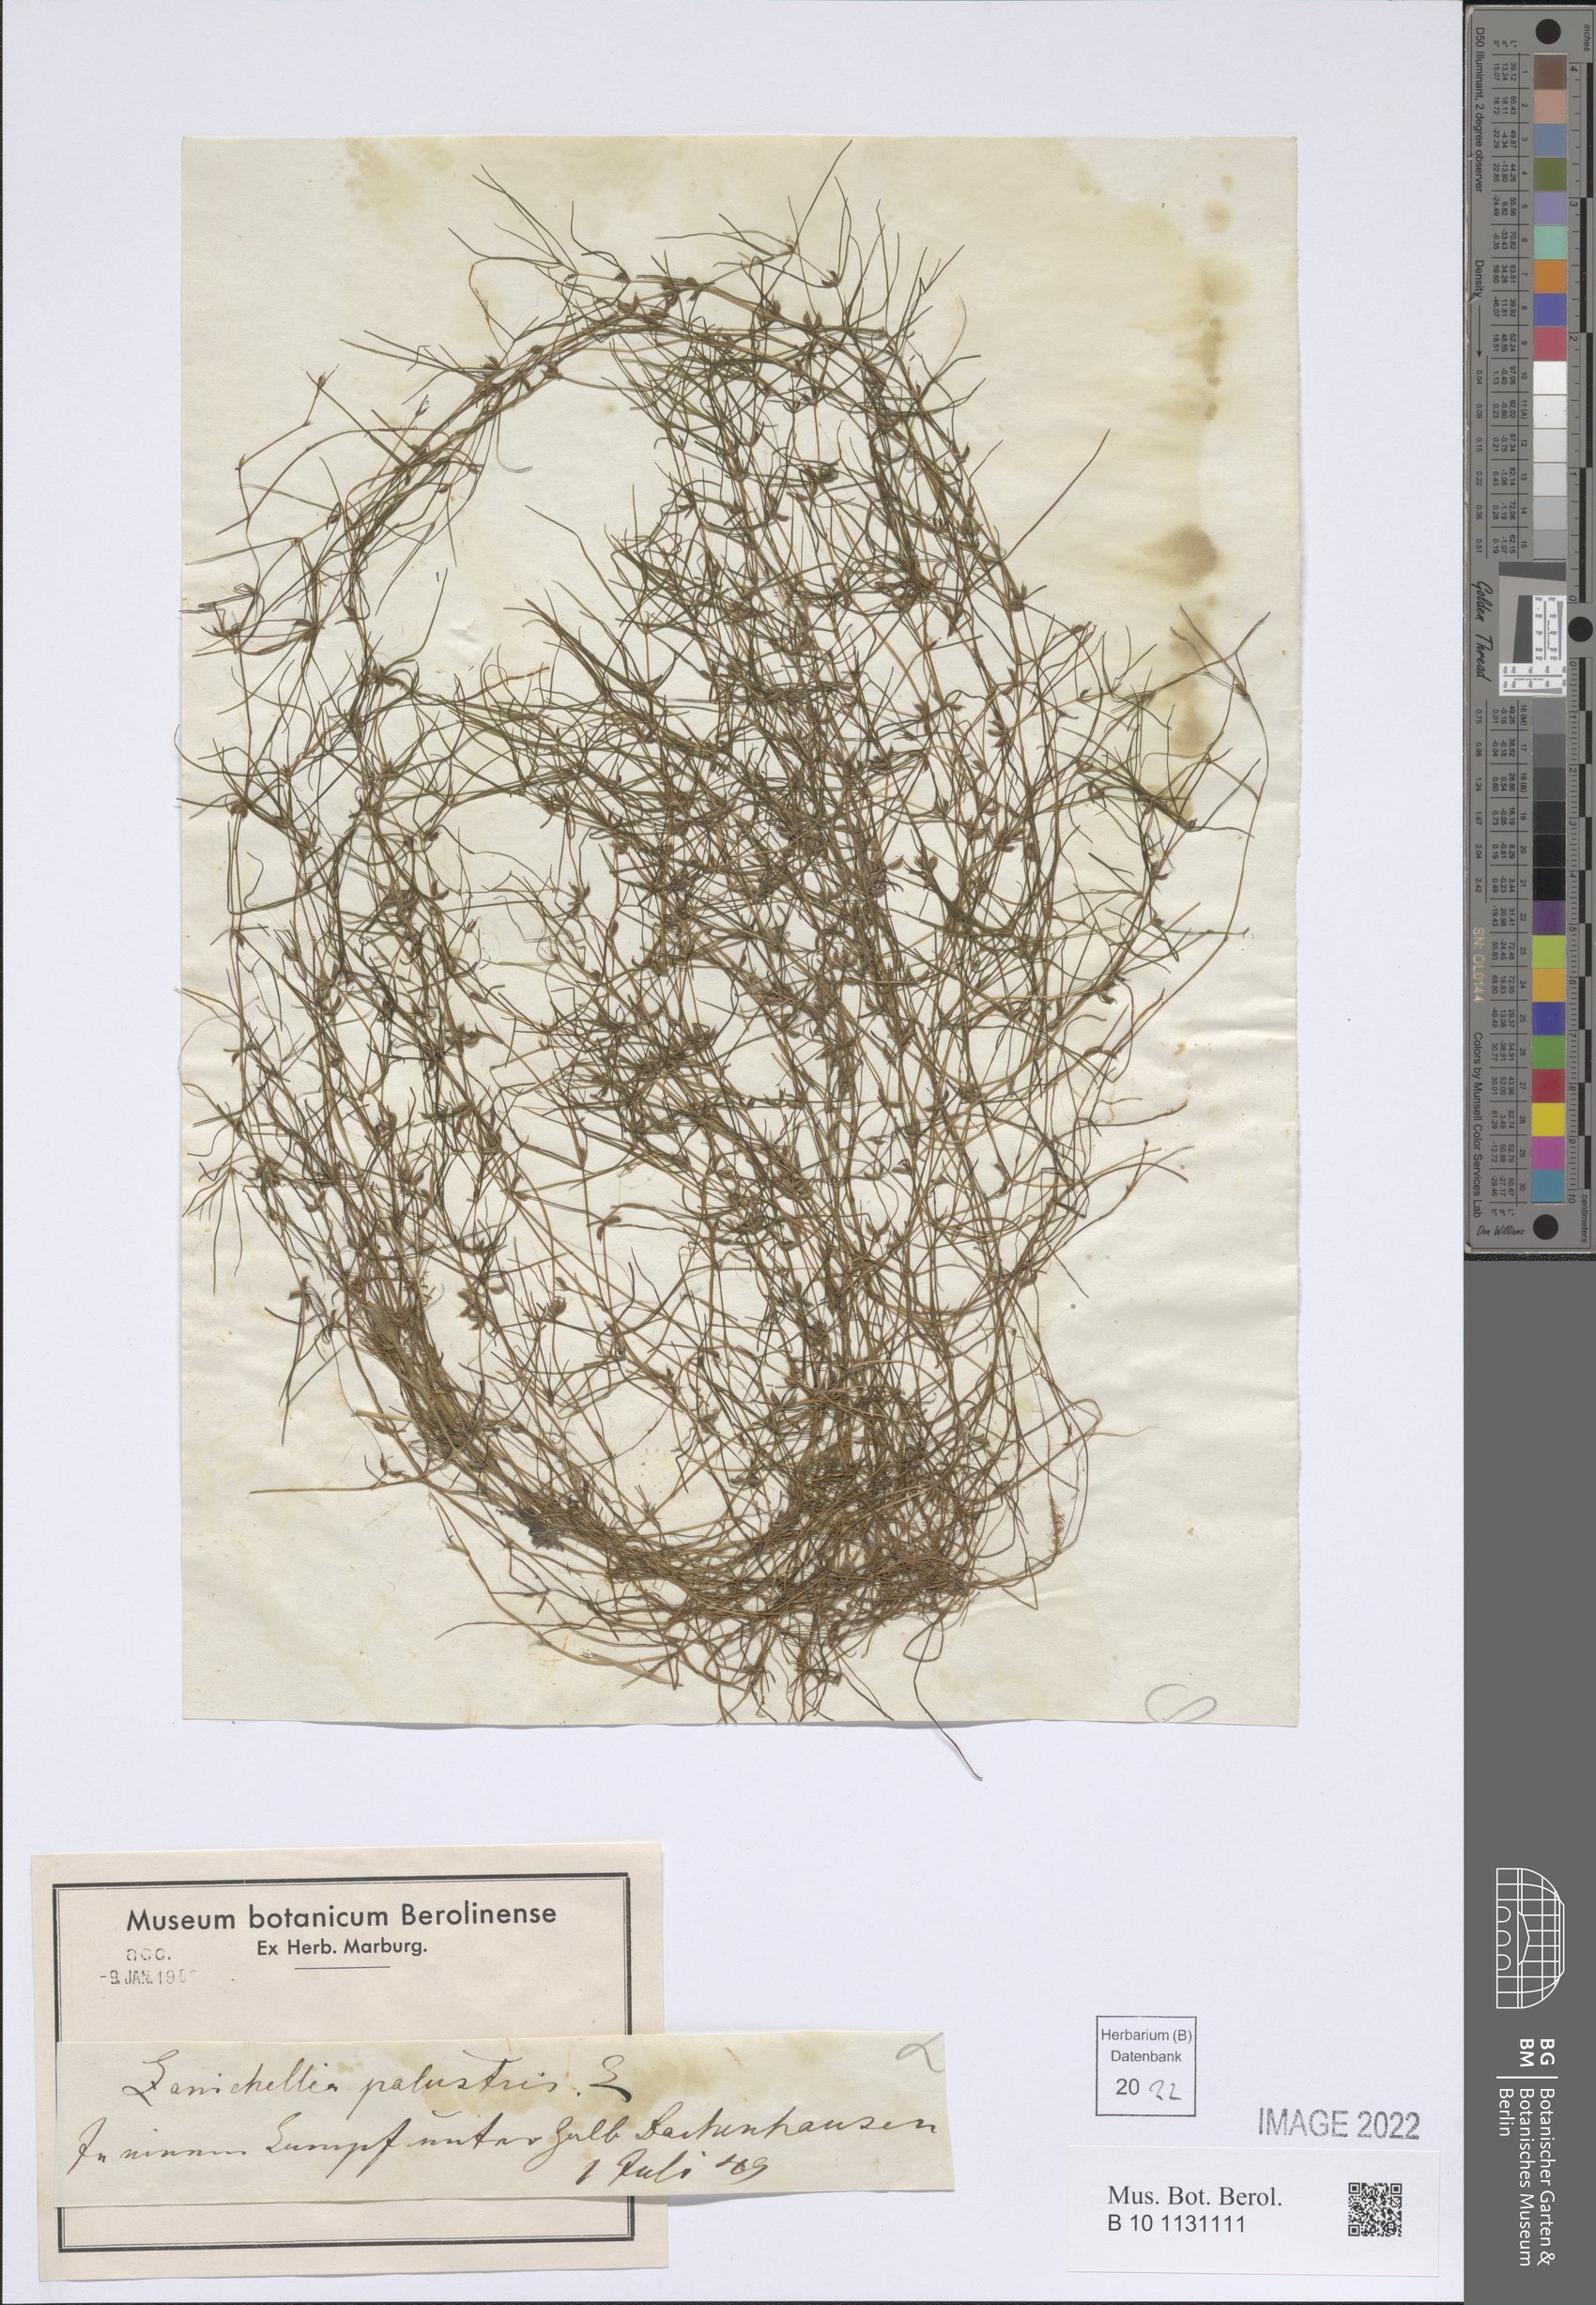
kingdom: Plantae
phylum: Tracheophyta
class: Liliopsida
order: Alismatales
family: Potamogetonaceae
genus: Zannichellia
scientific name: Zannichellia palustris
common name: Horned pondweed
